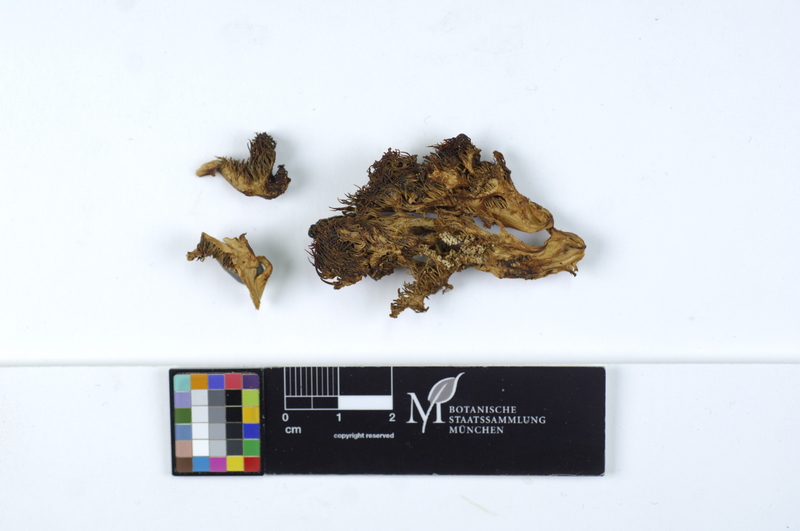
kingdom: Plantae
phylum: Tracheophyta
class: Magnoliopsida
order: Fagales
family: Fagaceae
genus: Fagus
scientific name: Fagus sylvatica
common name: Beech
